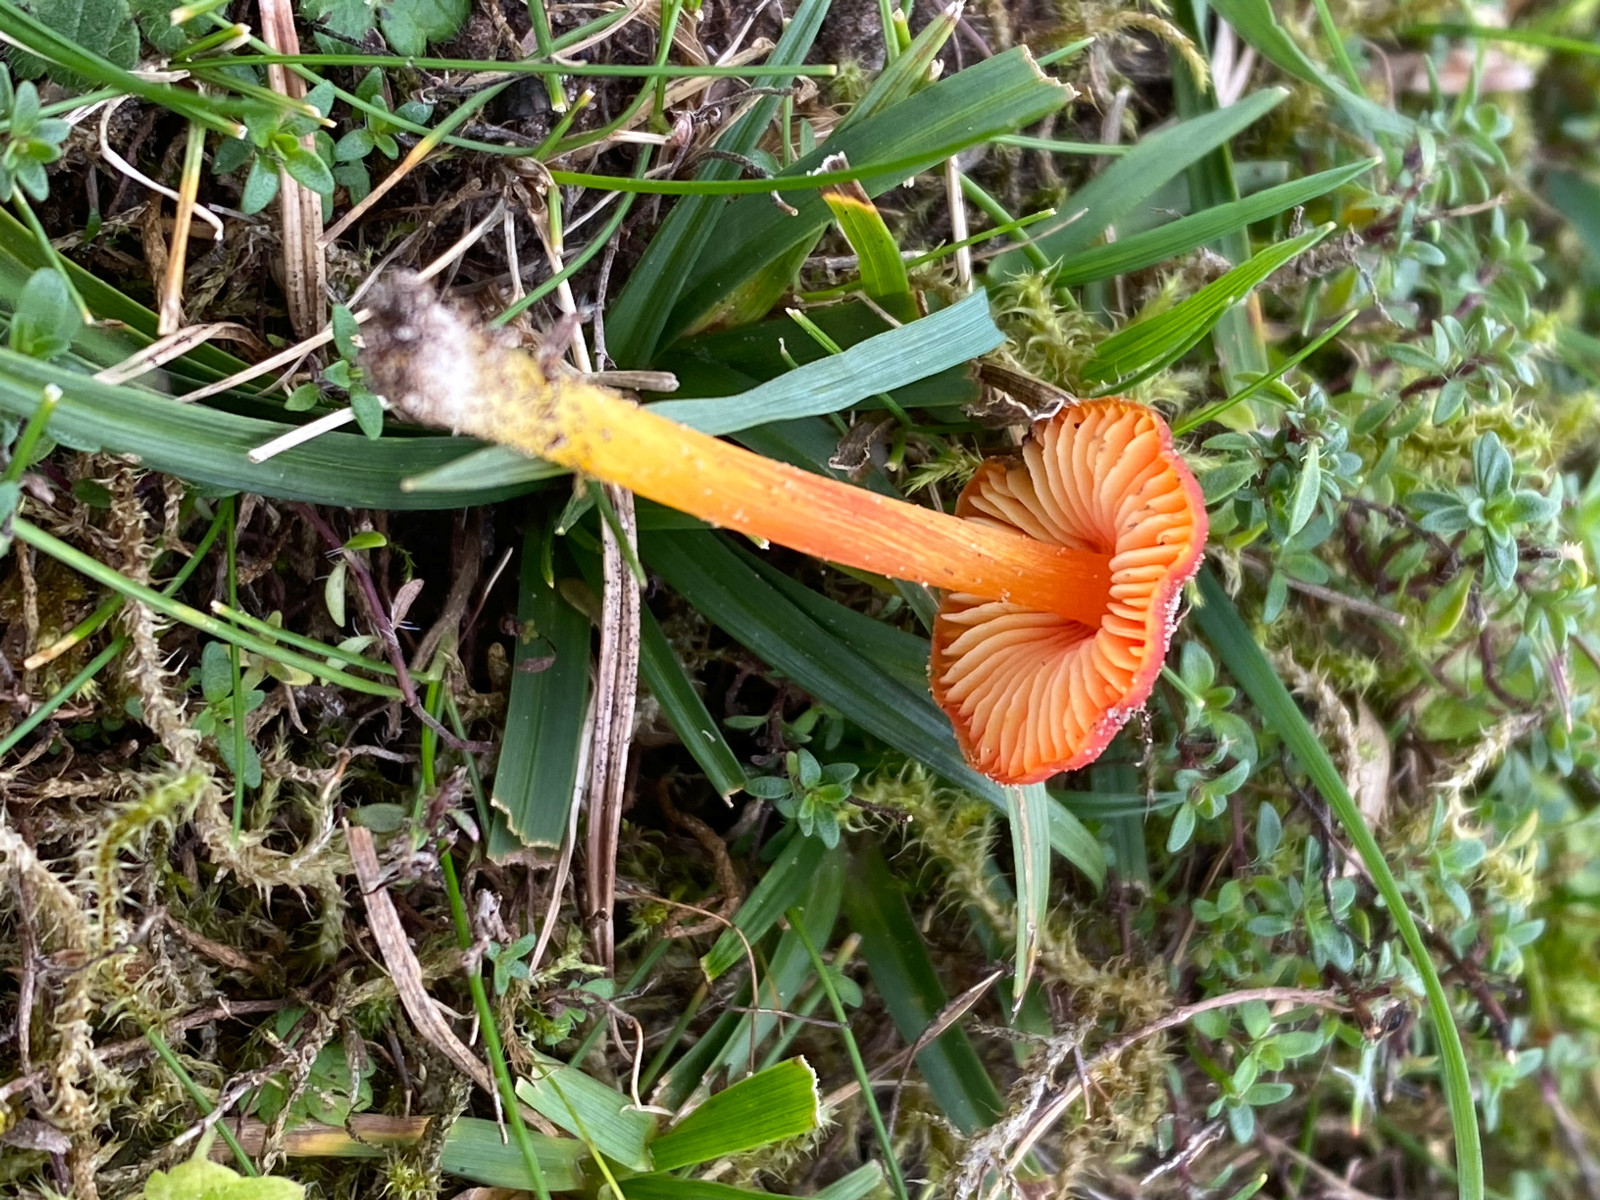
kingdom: Fungi
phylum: Basidiomycota
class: Agaricomycetes
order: Agaricales
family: Hygrophoraceae
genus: Hygrocybe
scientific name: Hygrocybe
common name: vokshat
